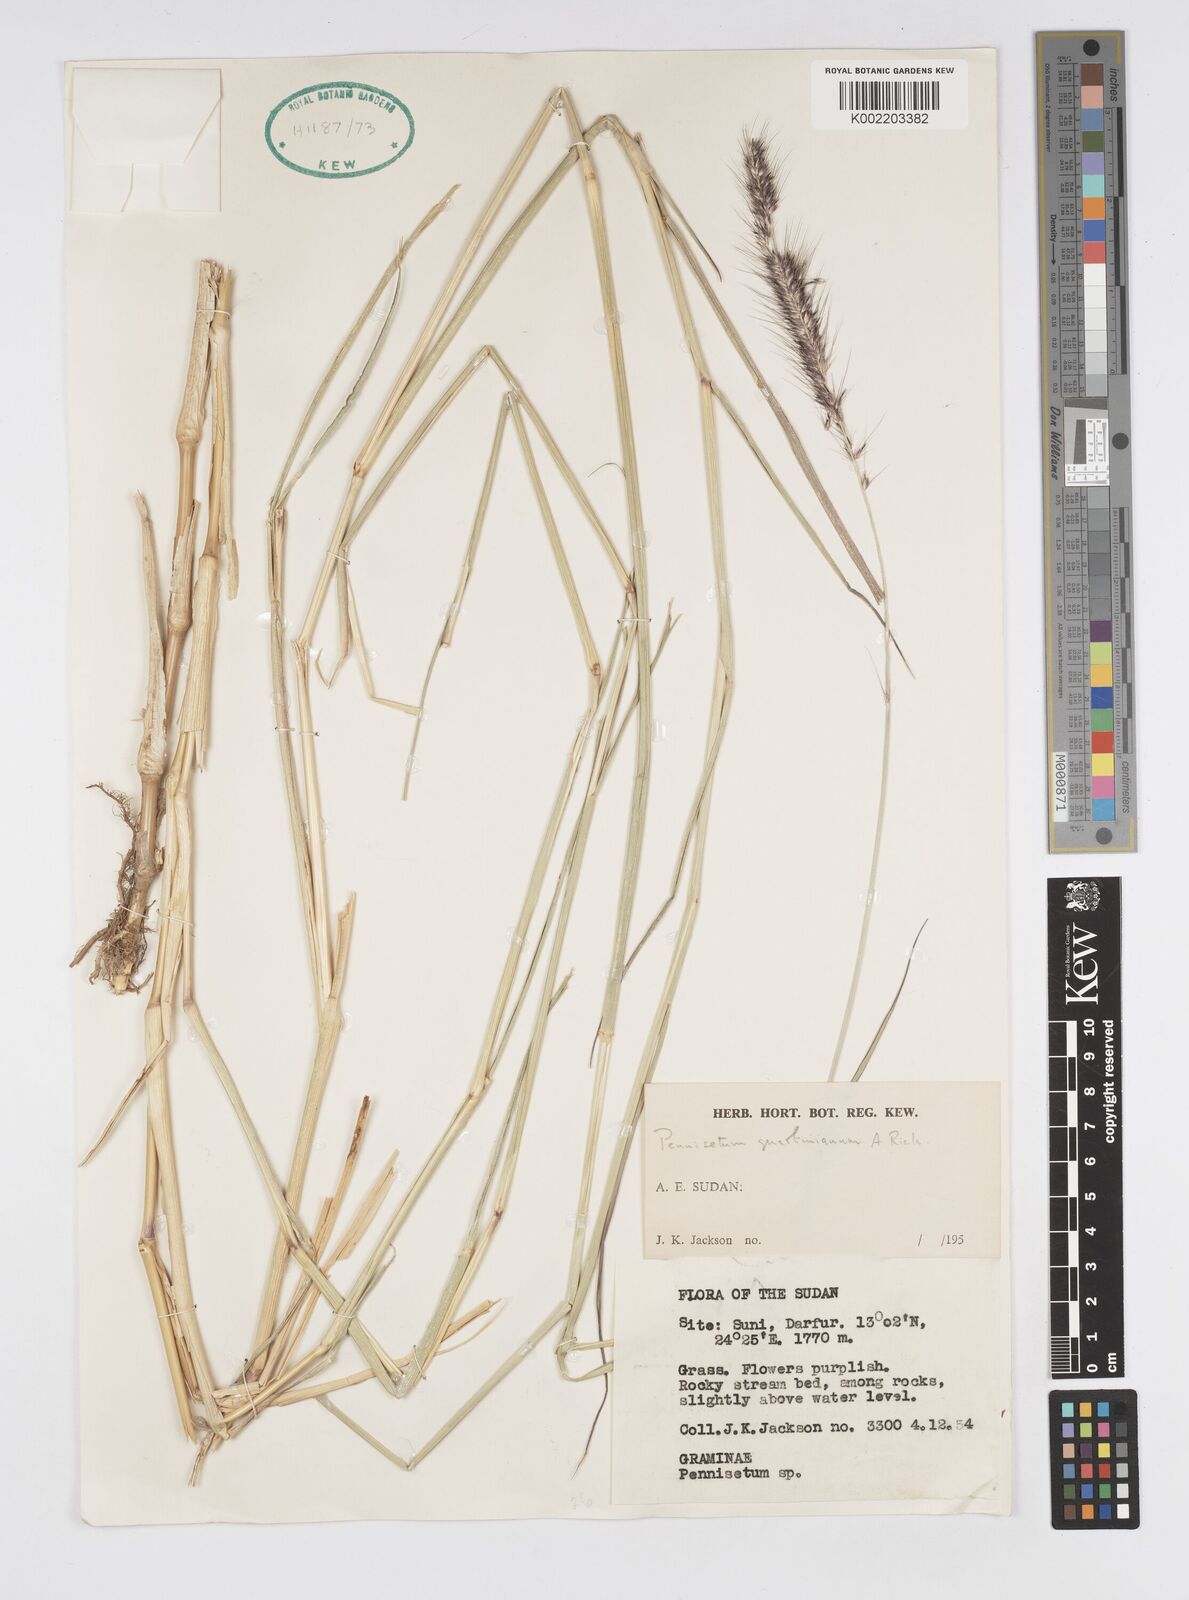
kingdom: Plantae
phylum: Tracheophyta
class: Liliopsida
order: Poales
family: Poaceae
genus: Cenchrus
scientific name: Cenchrus caudatus
